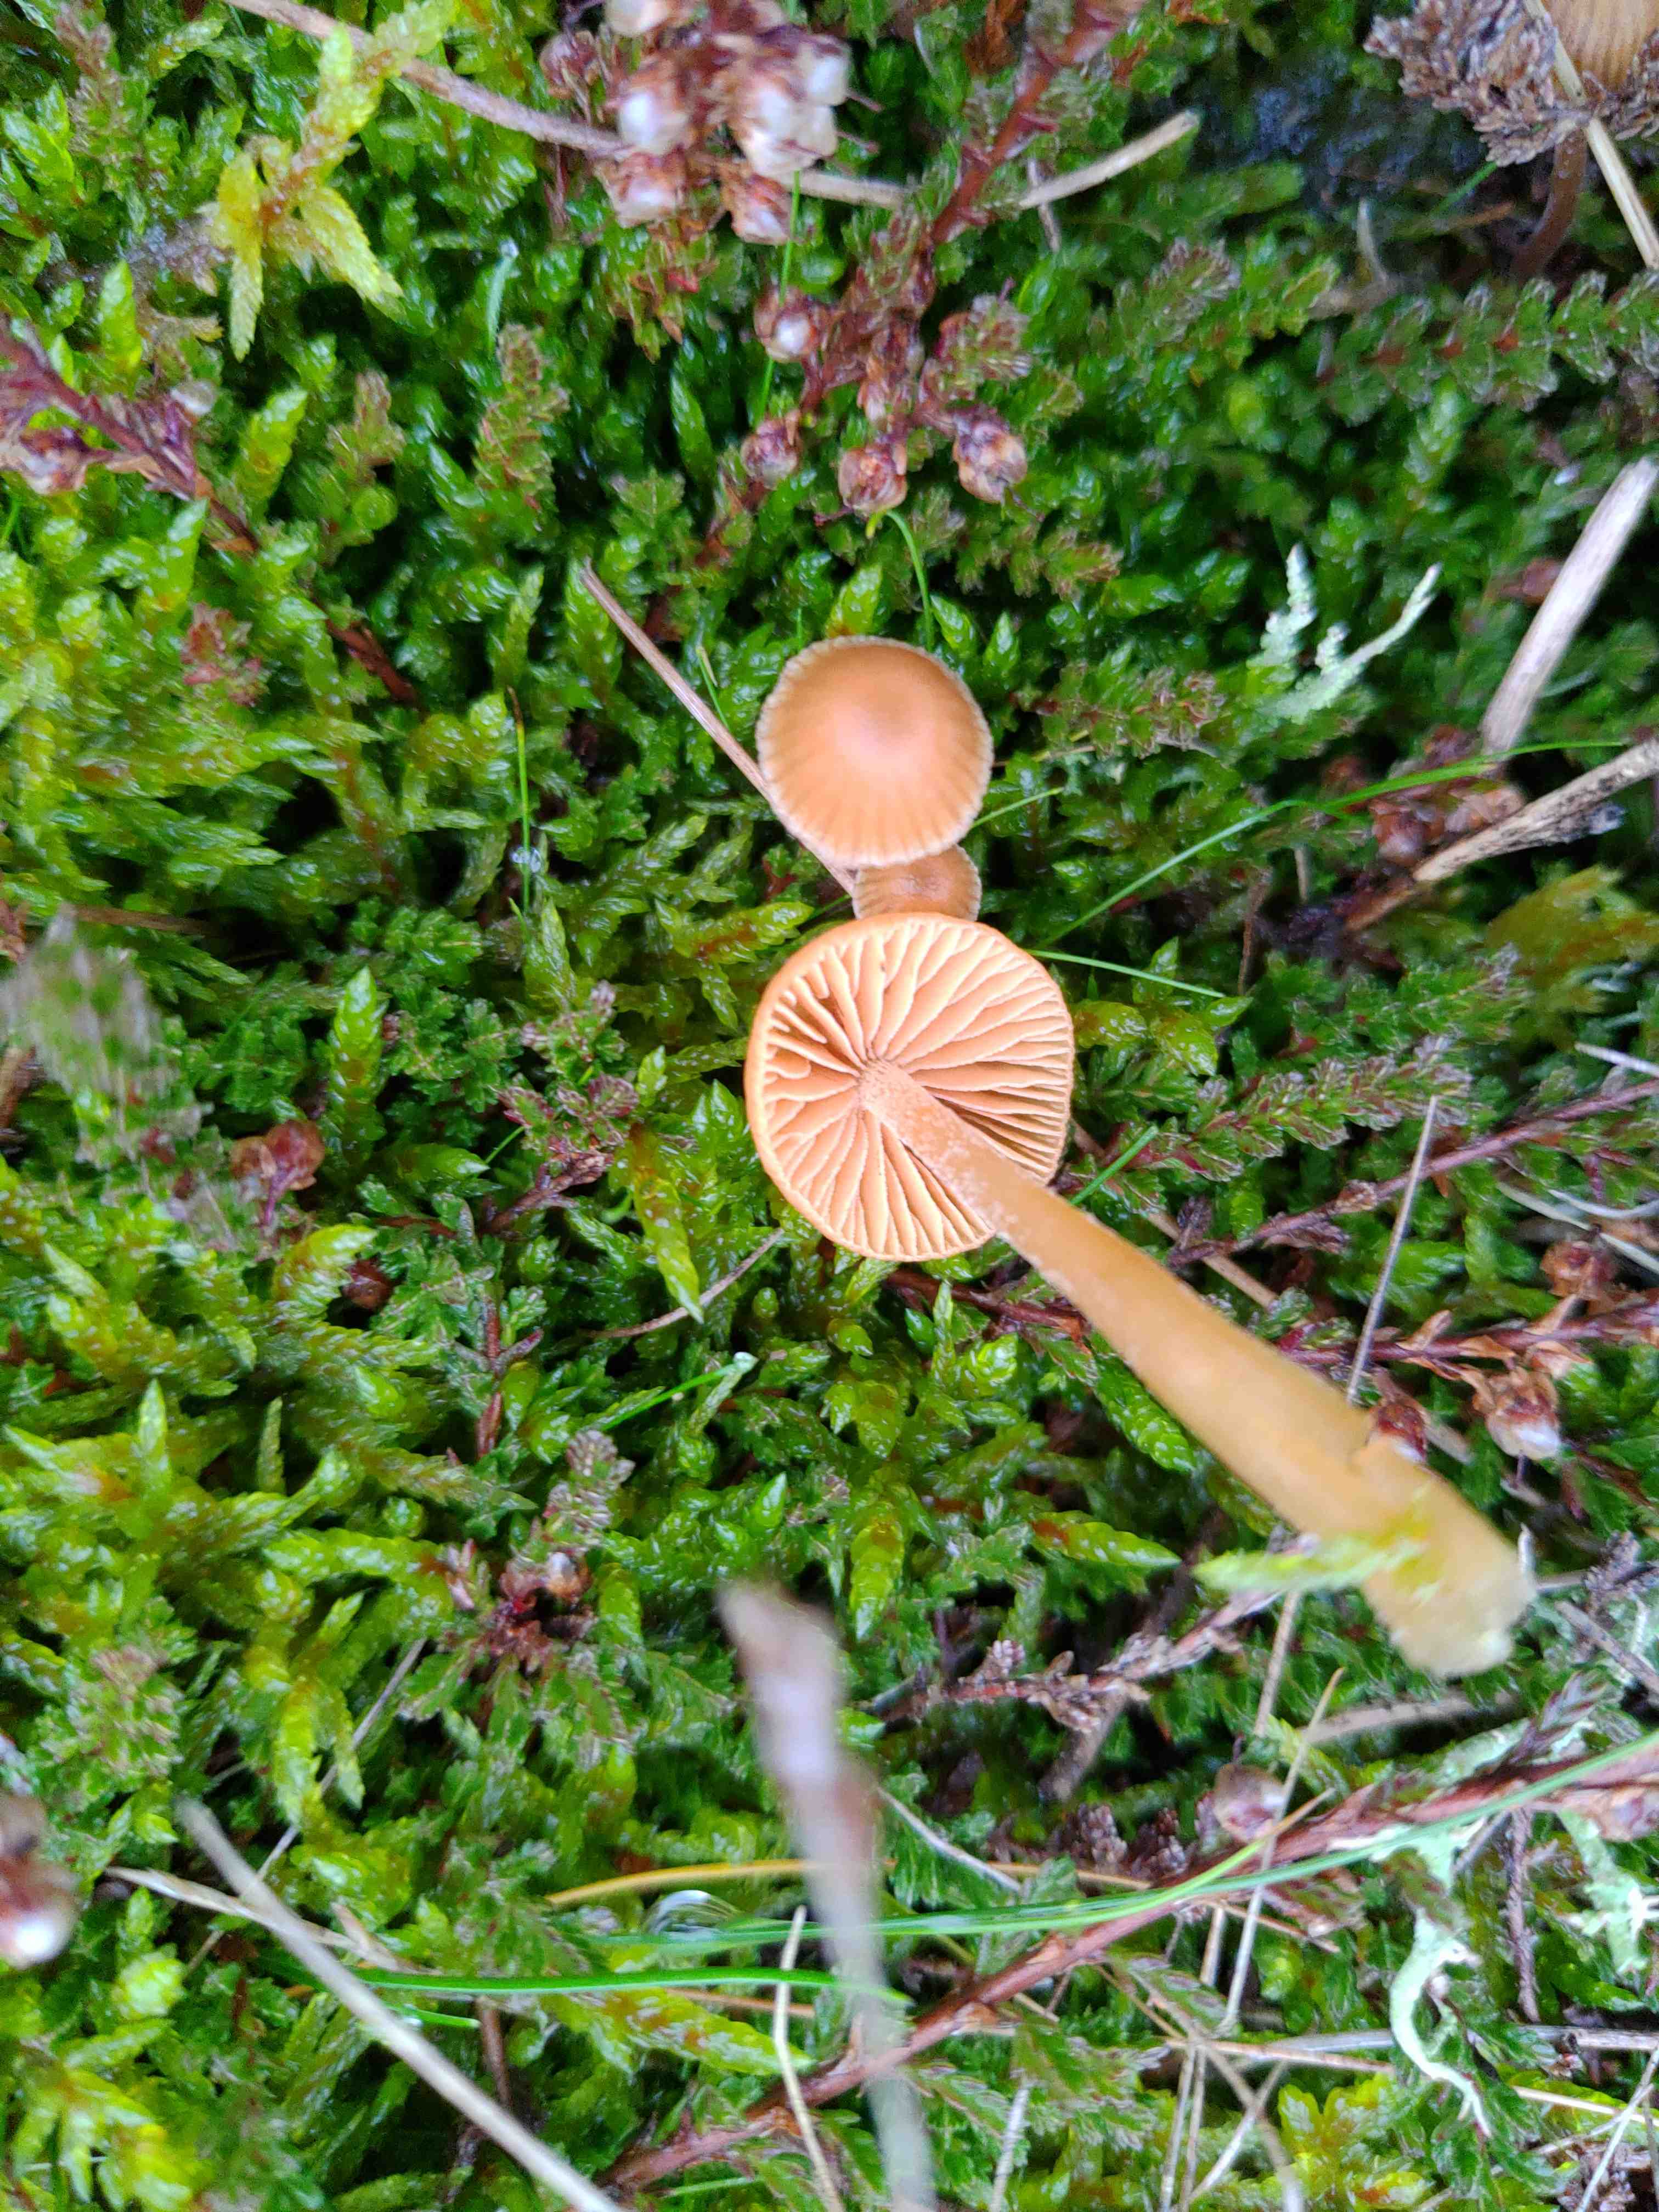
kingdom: Fungi
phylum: Basidiomycota
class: Agaricomycetes
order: Agaricales
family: Hymenogastraceae
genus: Galerina
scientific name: Galerina
